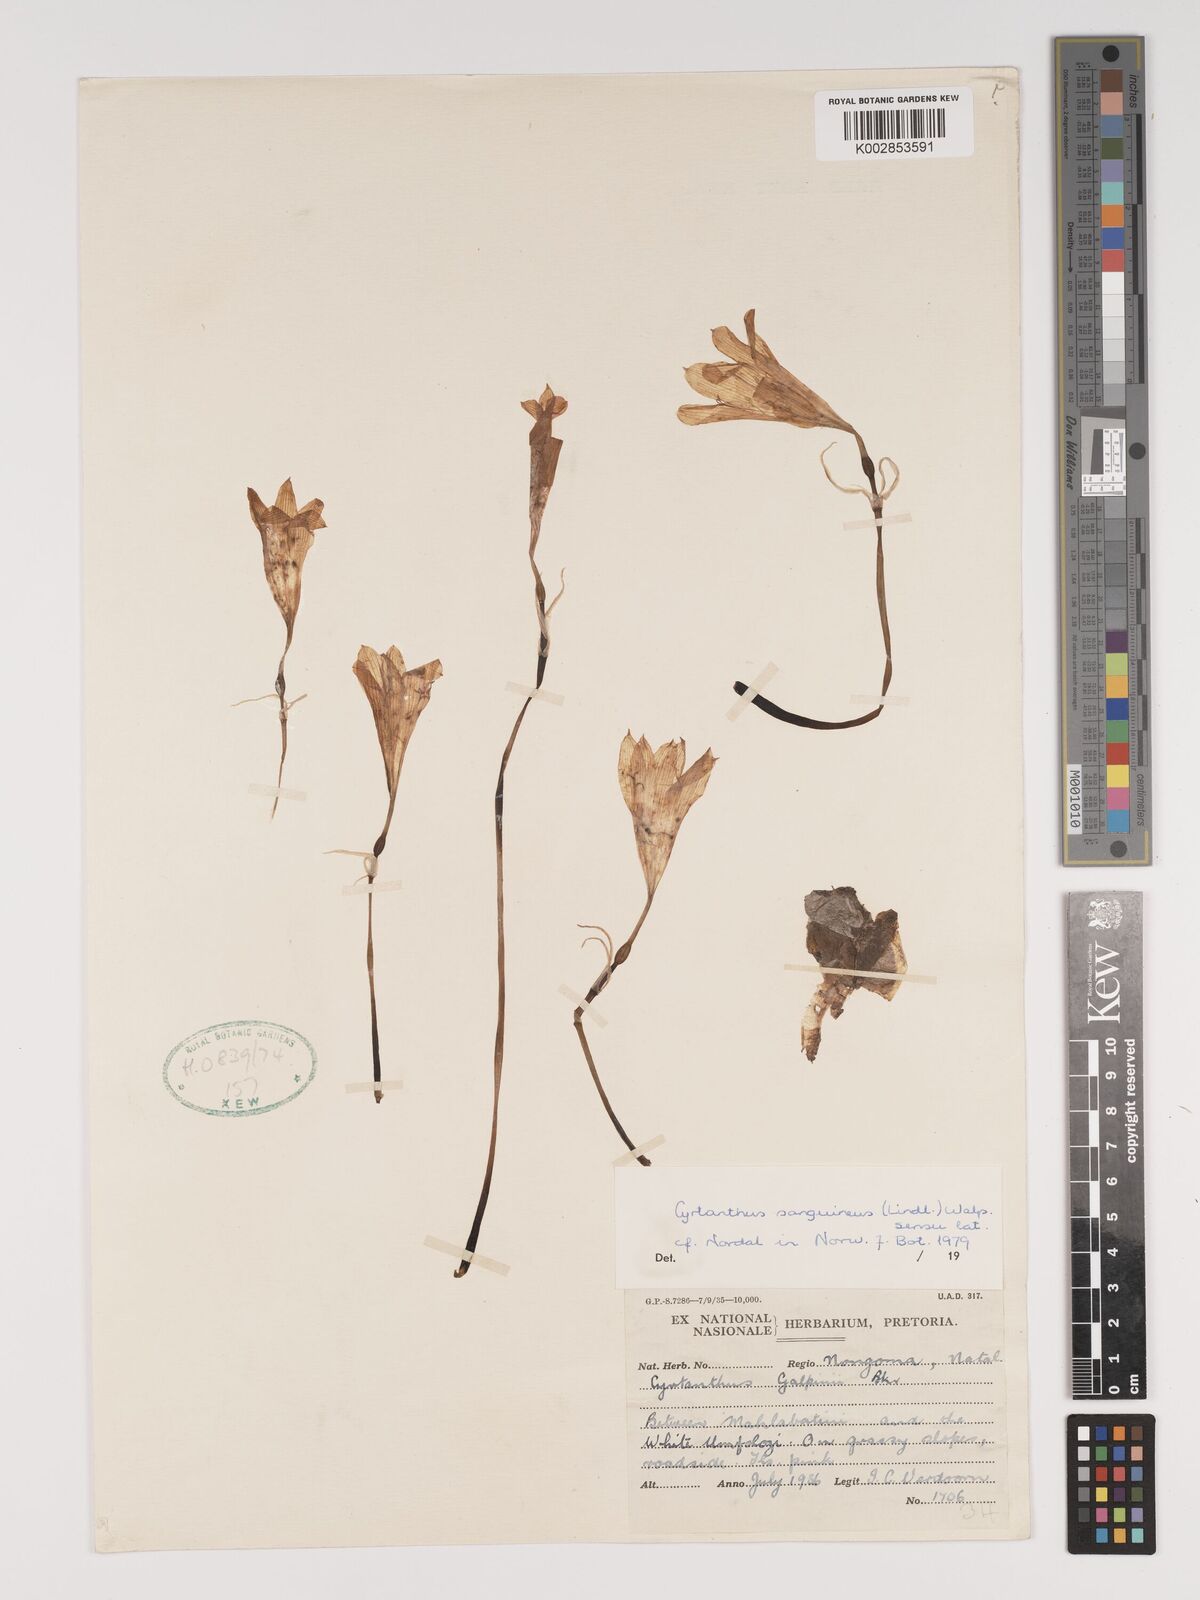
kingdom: Plantae
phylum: Tracheophyta
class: Liliopsida
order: Asparagales
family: Amaryllidaceae
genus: Cyrtanthus
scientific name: Cyrtanthus sanguineus
